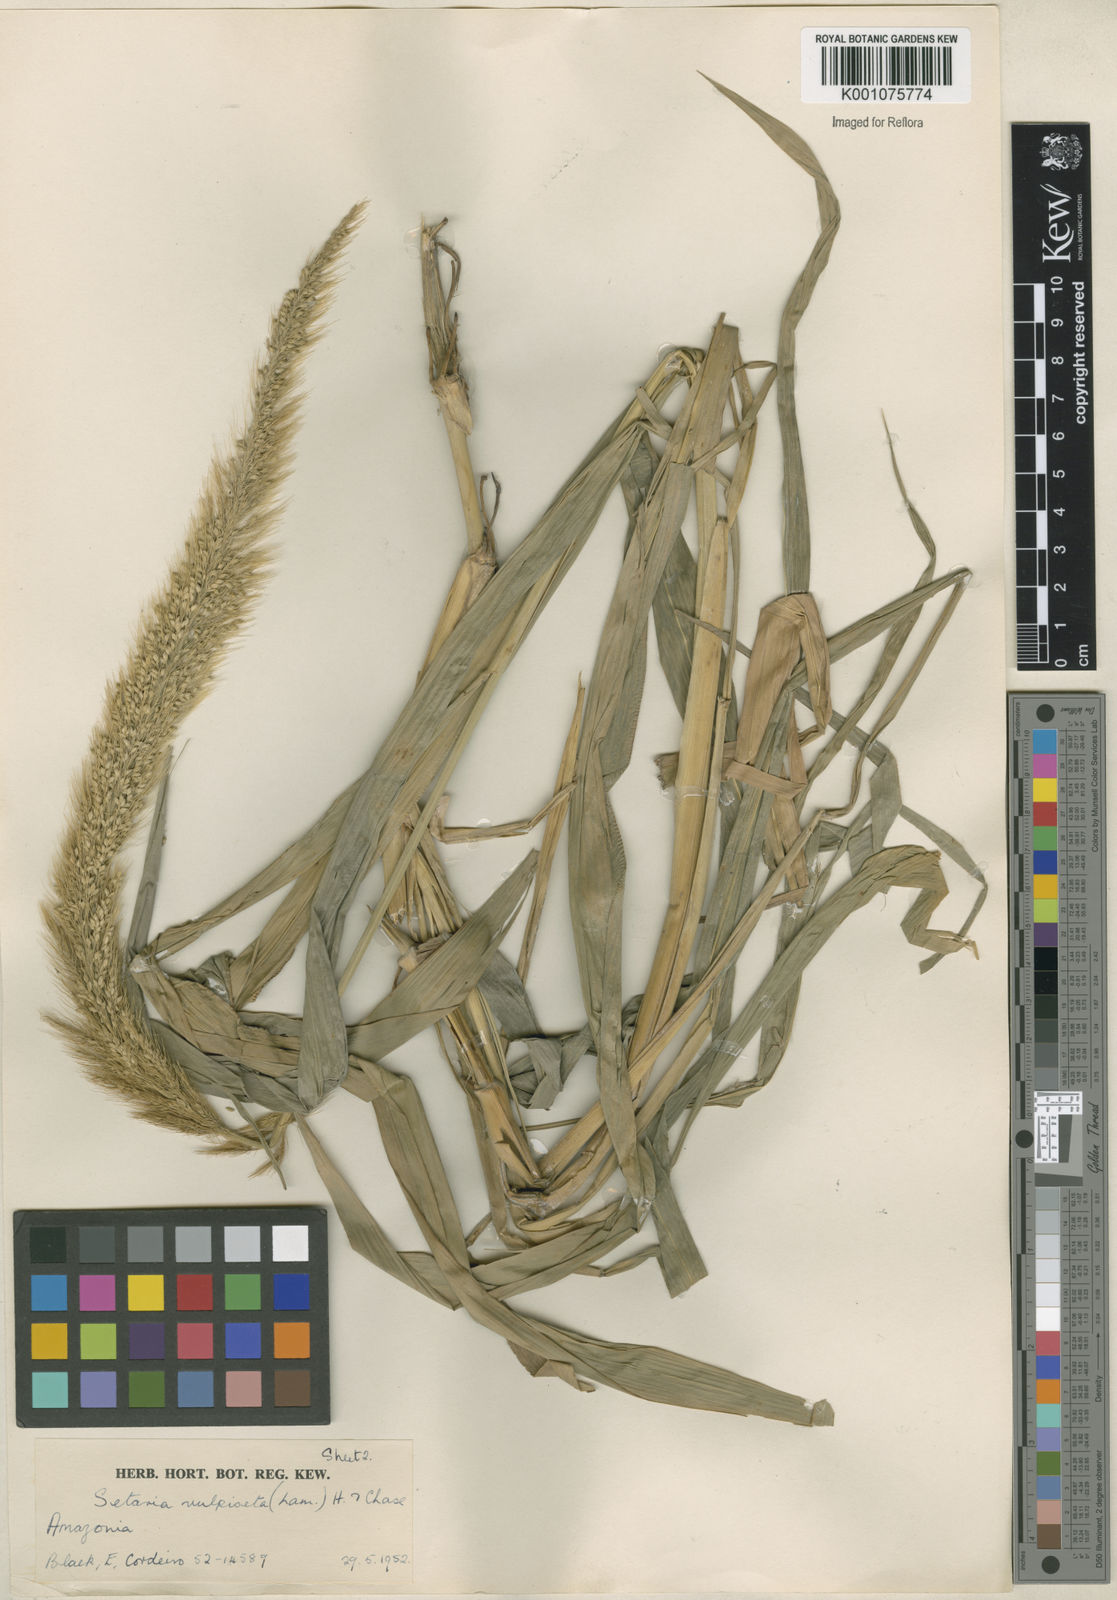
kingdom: Plantae
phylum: Tracheophyta
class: Liliopsida
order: Poales
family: Poaceae
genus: Setaria
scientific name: Setaria vulpiseta
